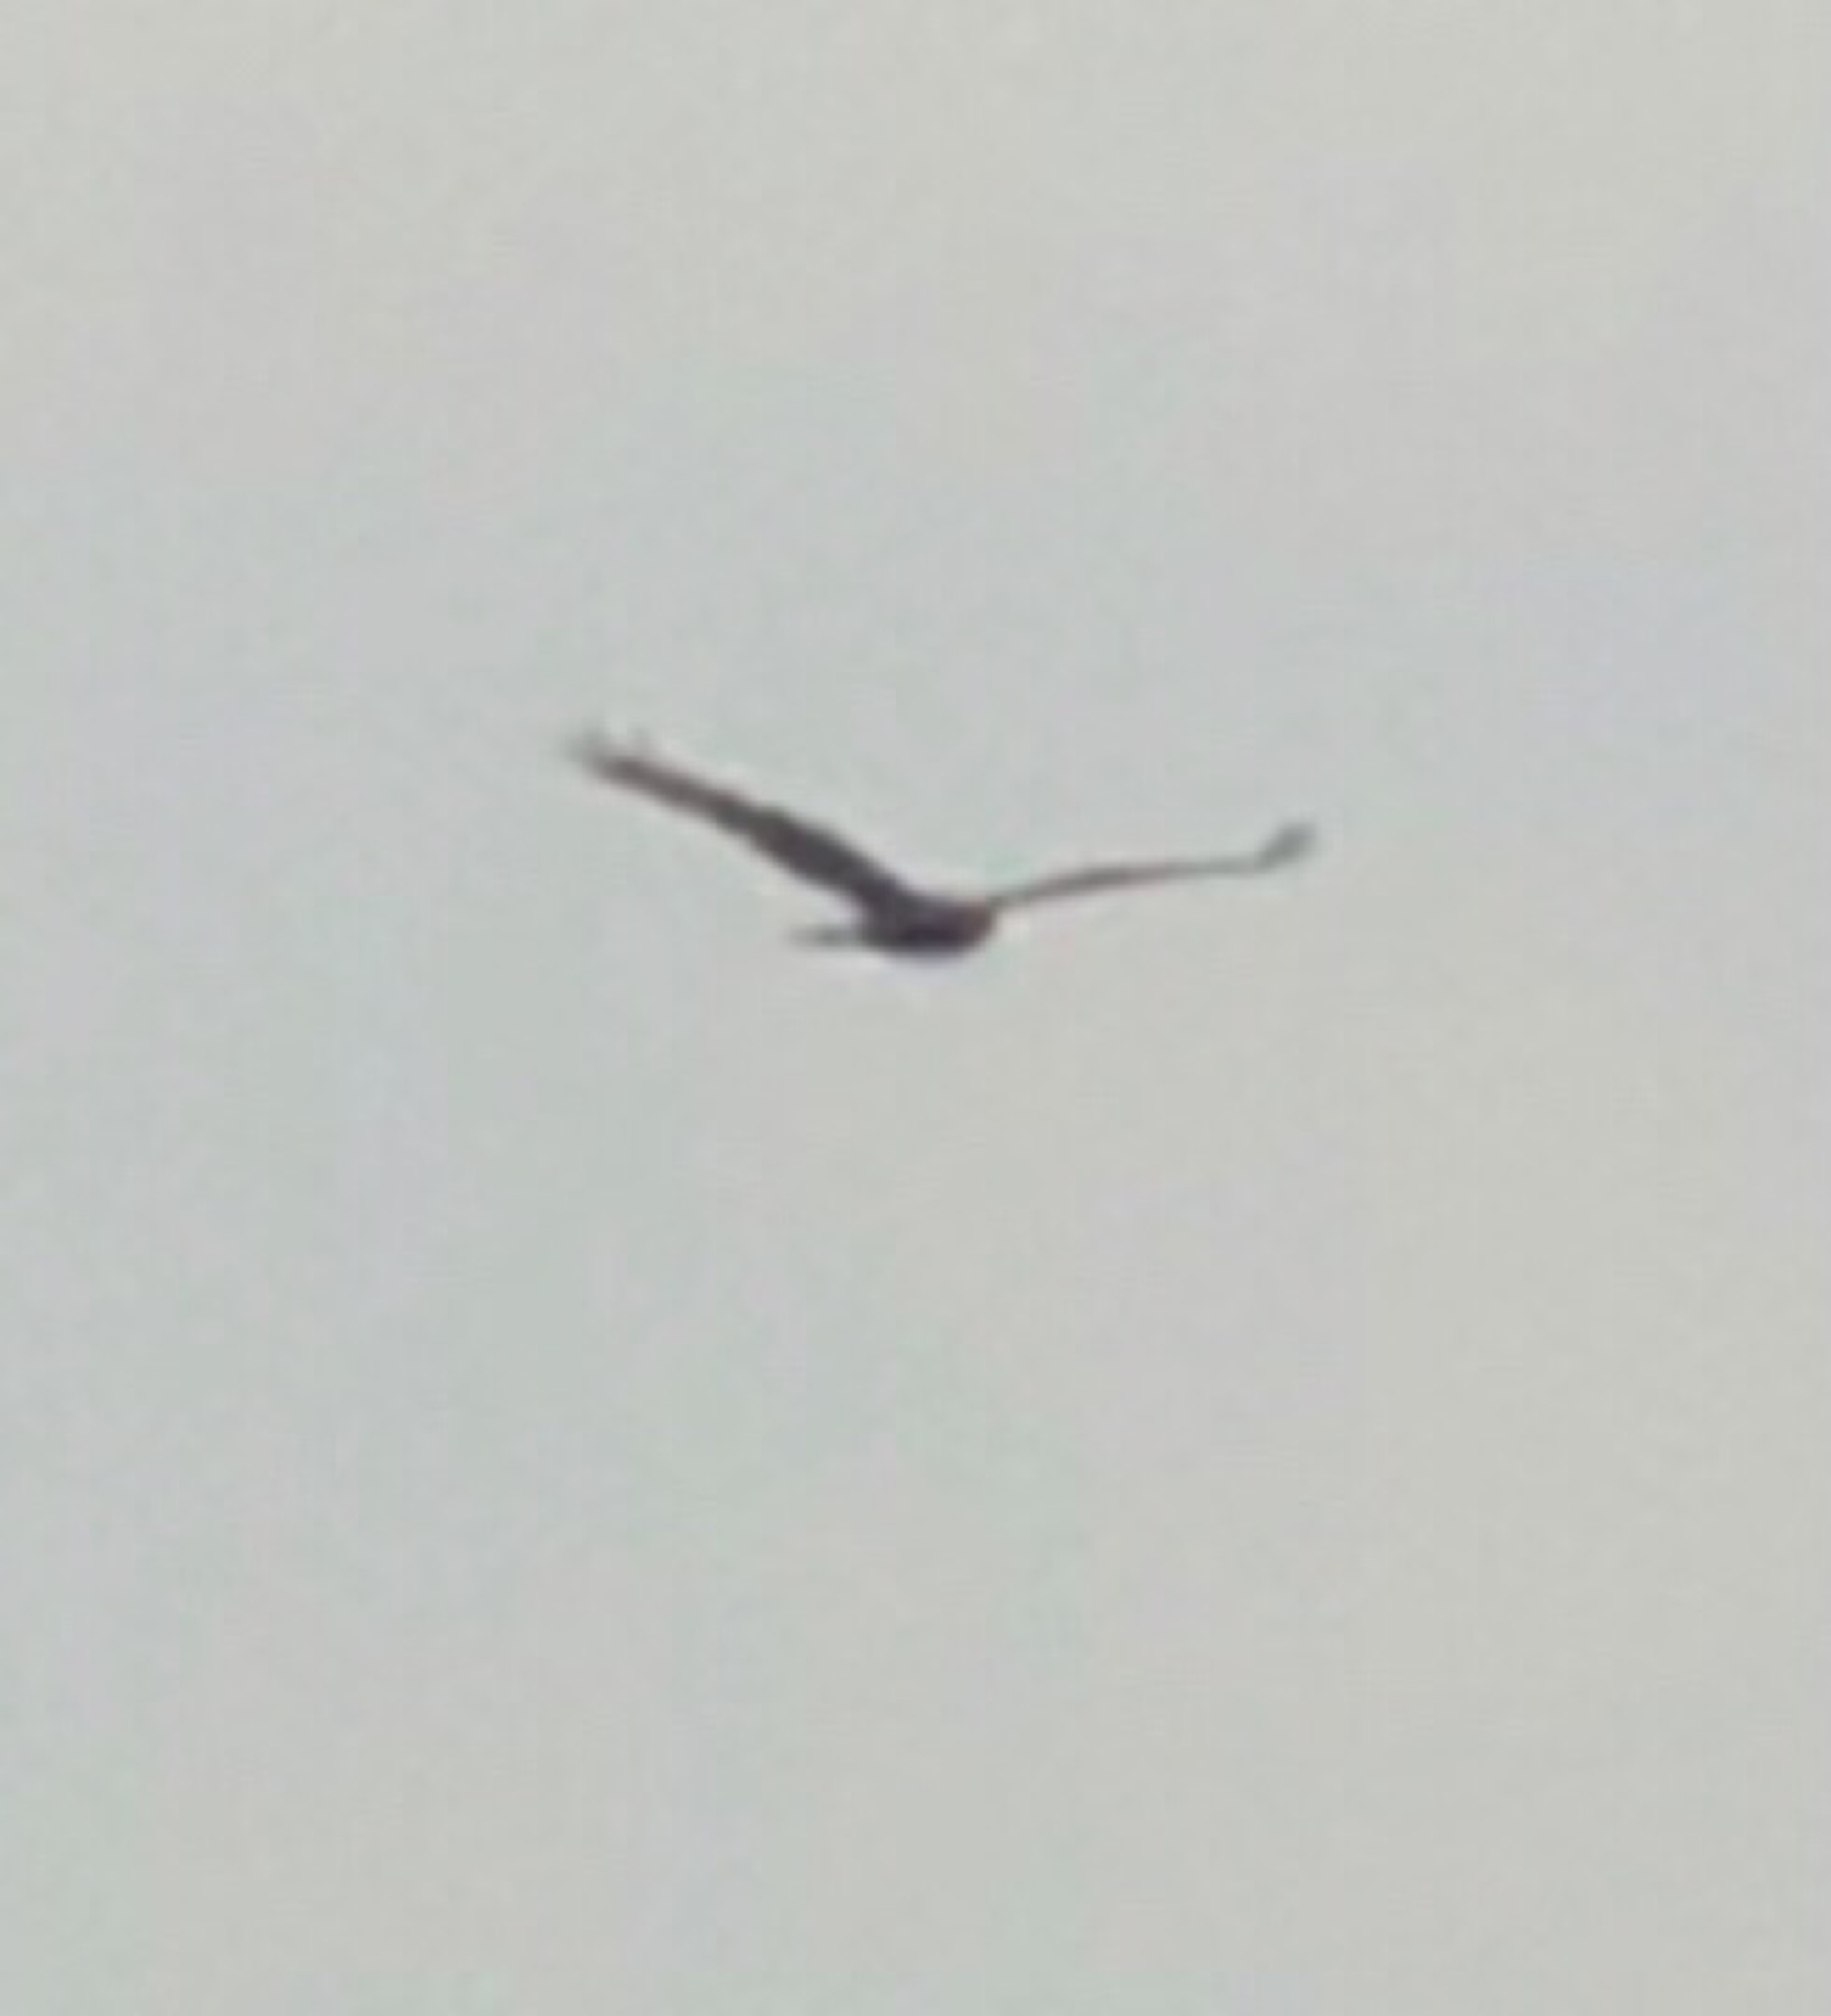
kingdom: Animalia
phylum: Chordata
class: Aves
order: Accipitriformes
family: Accipitridae
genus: Circus
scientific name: Circus aeruginosus
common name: Rørhøg
